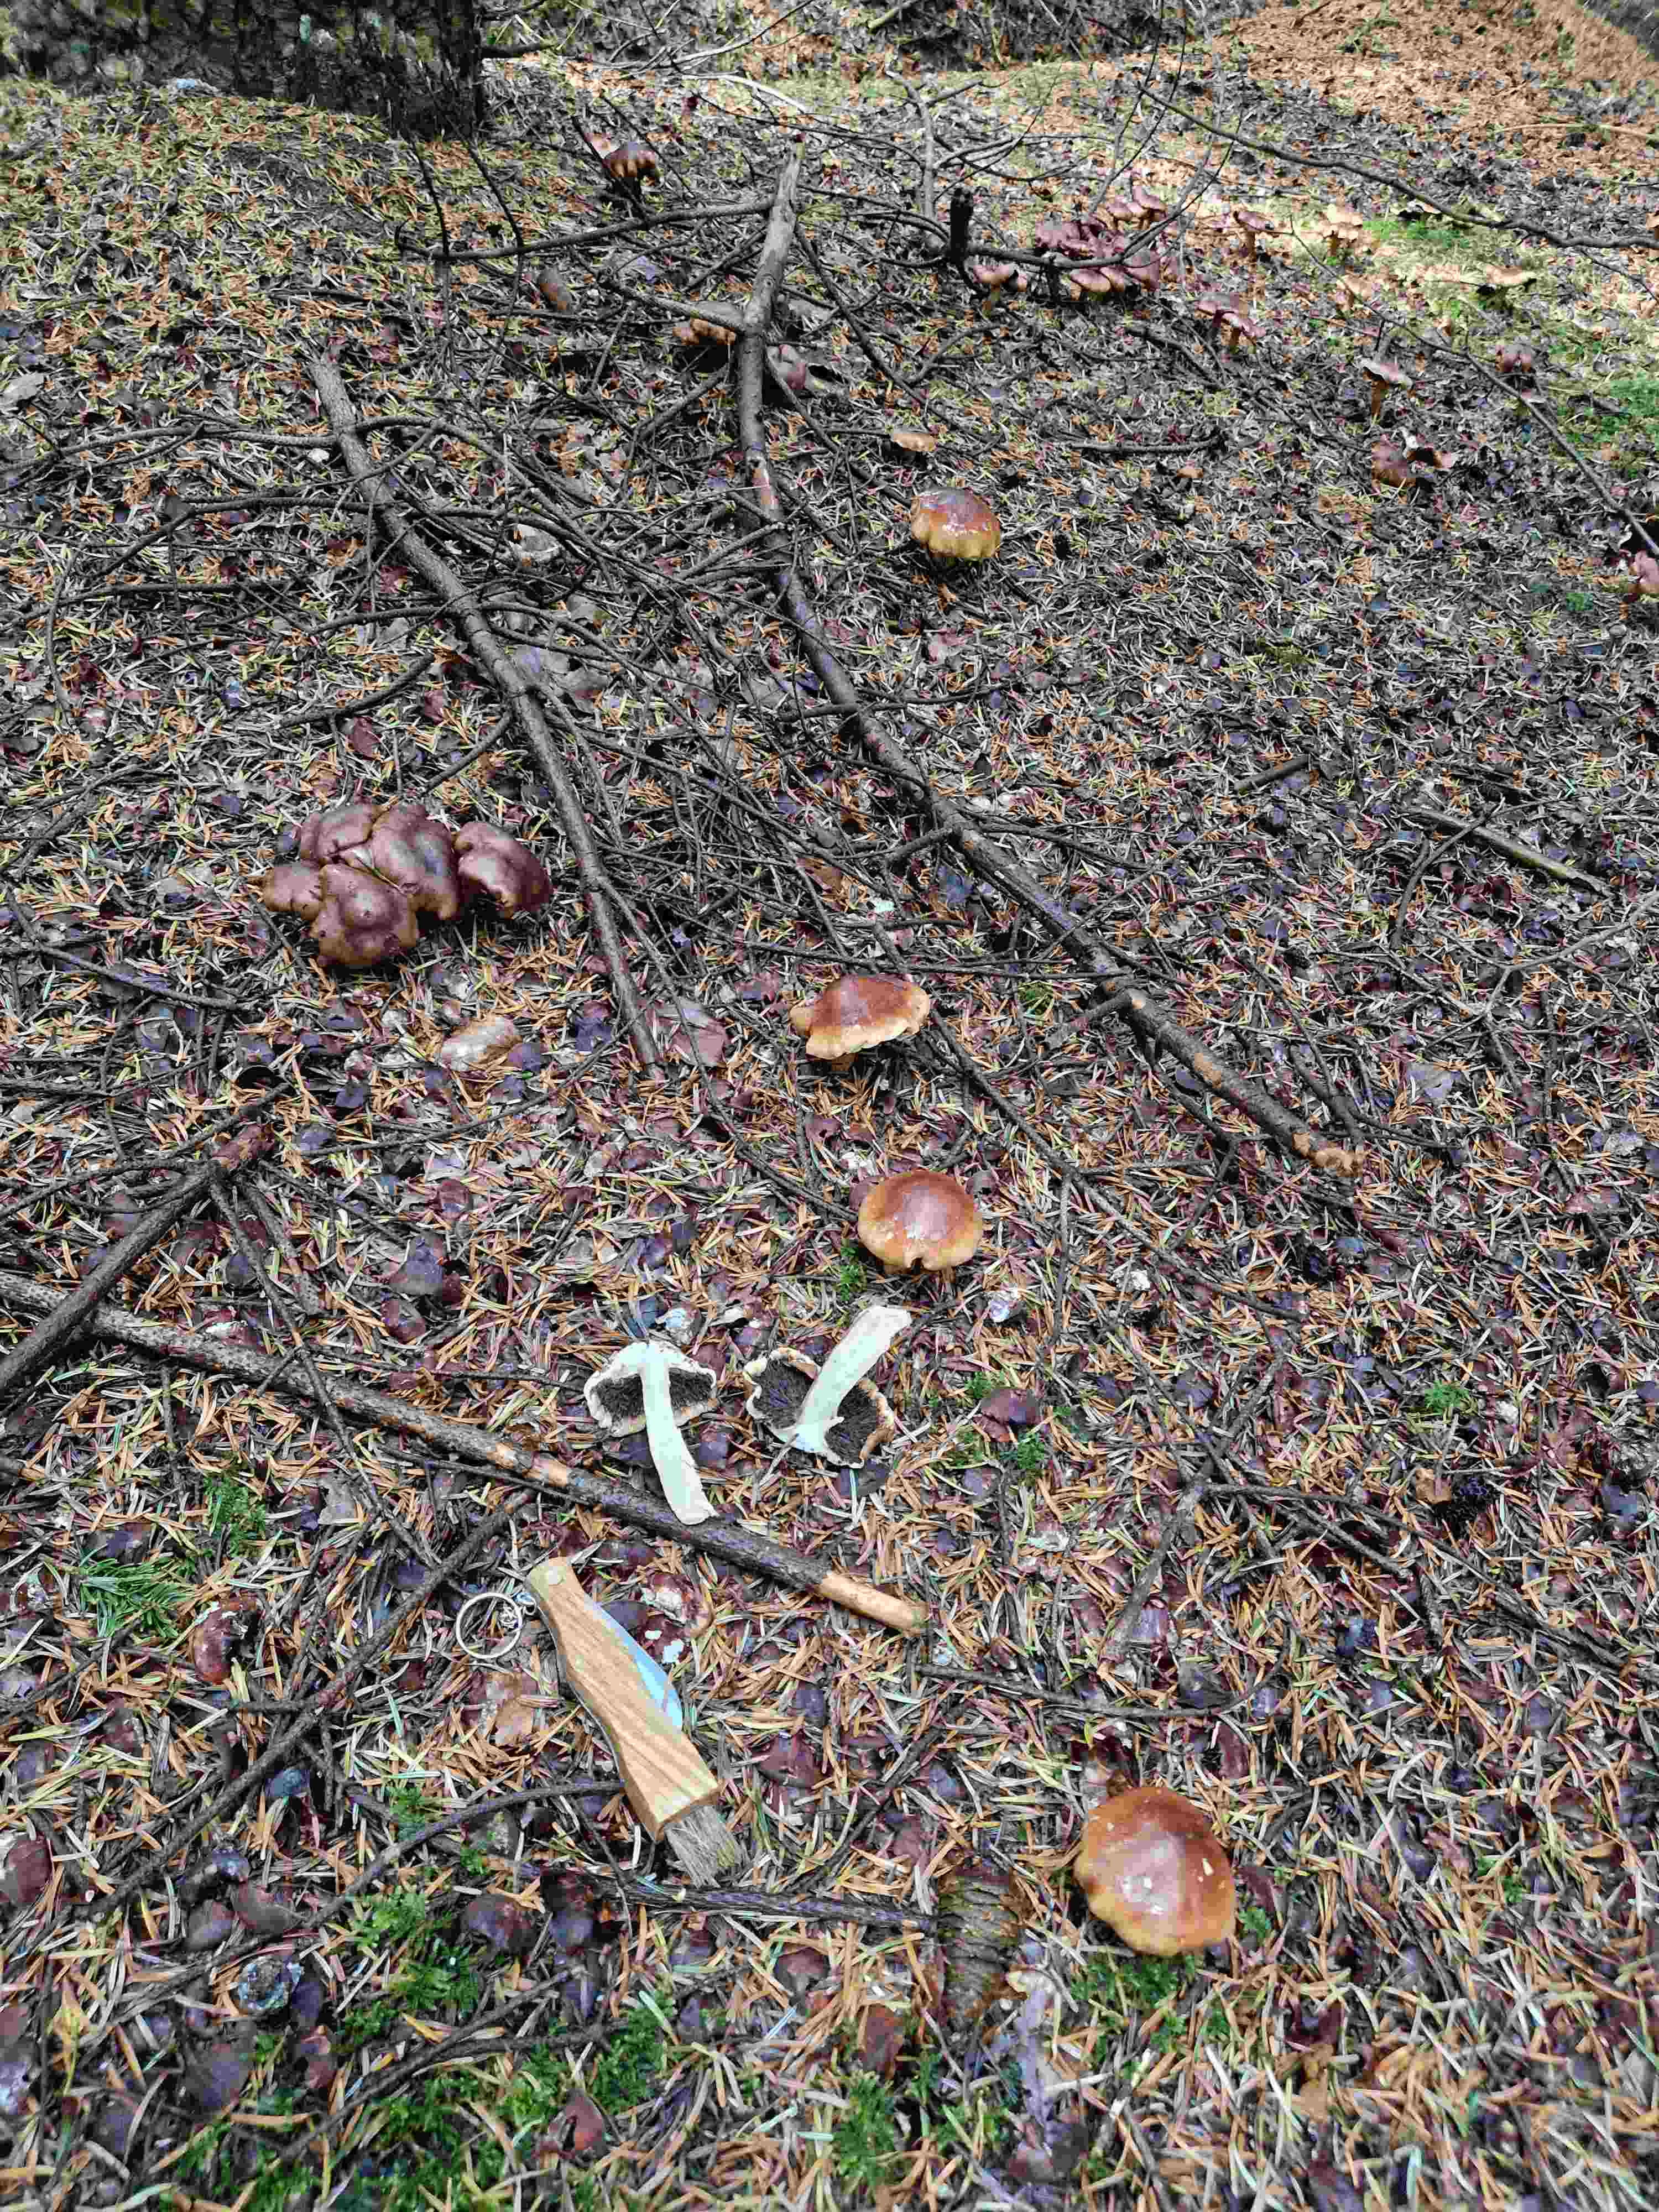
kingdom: Fungi
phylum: Basidiomycota
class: Agaricomycetes
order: Agaricales
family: Tricholomataceae
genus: Tricholoma
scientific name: Tricholoma
